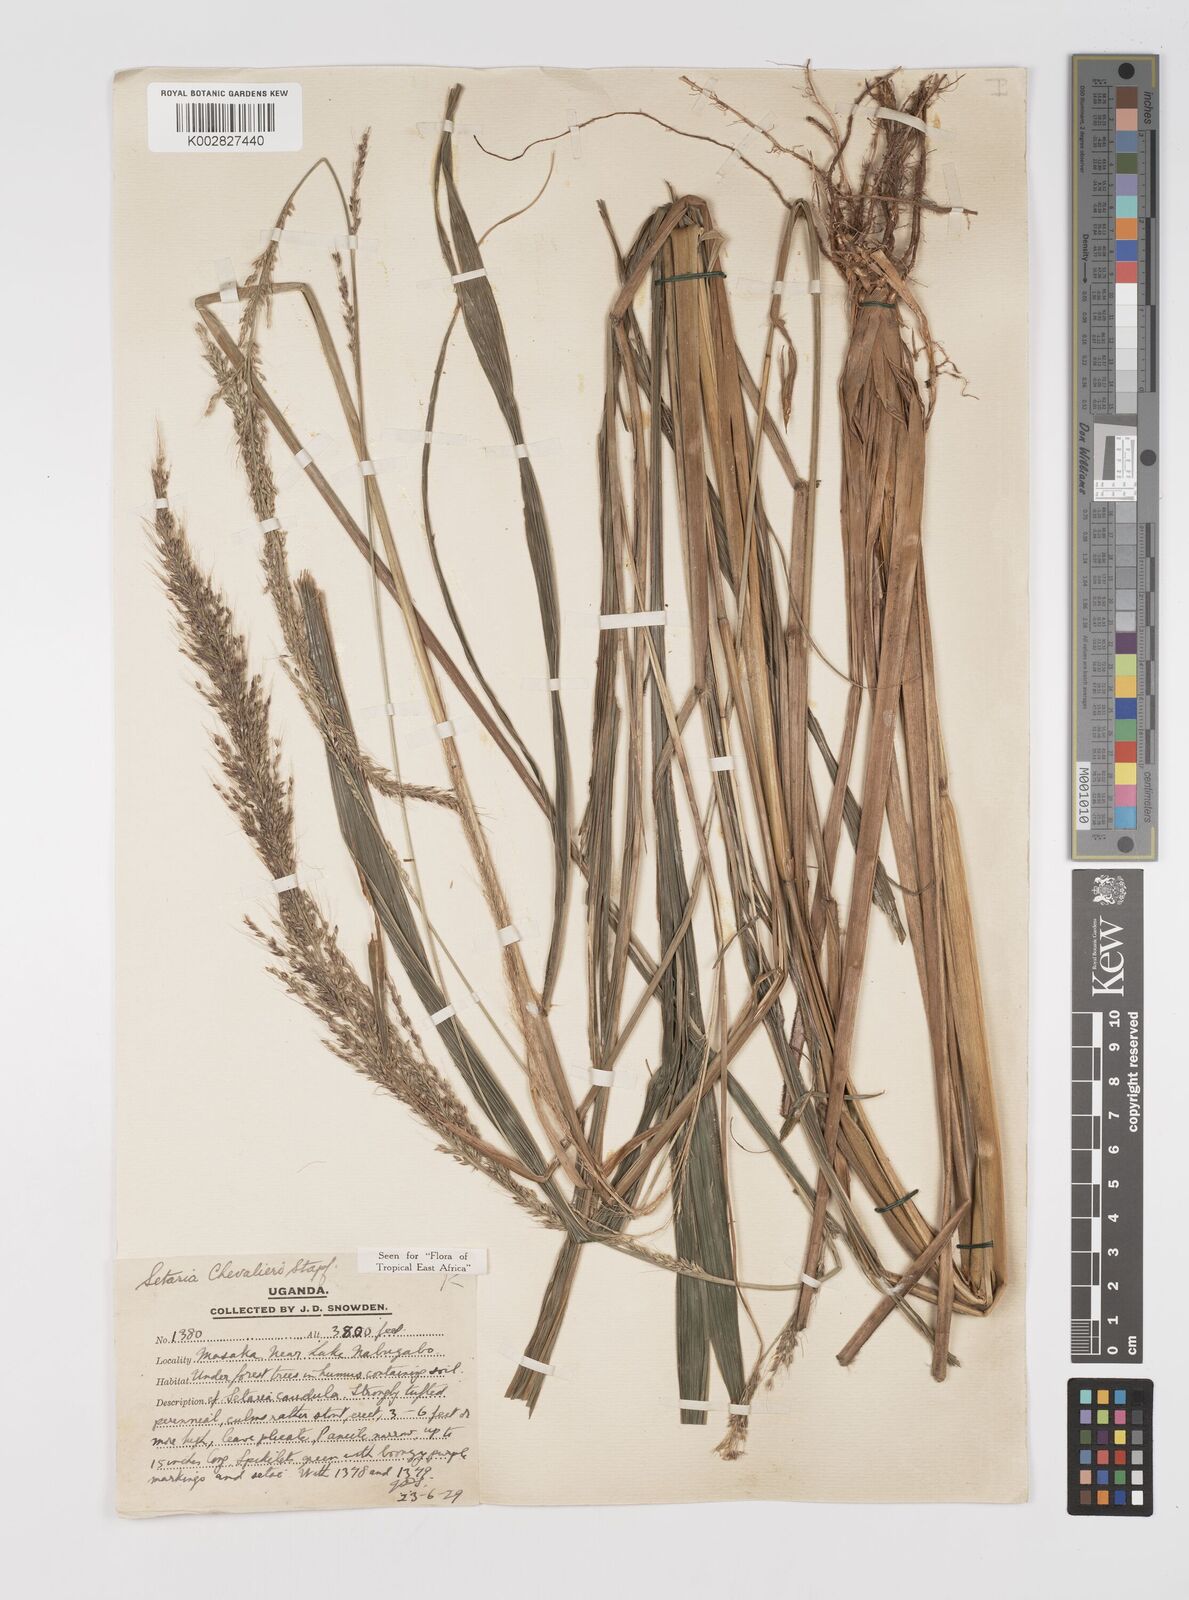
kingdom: Plantae
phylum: Tracheophyta
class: Liliopsida
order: Poales
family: Poaceae
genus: Setaria
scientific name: Setaria megaphylla
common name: Bigleaf bristlegrass
